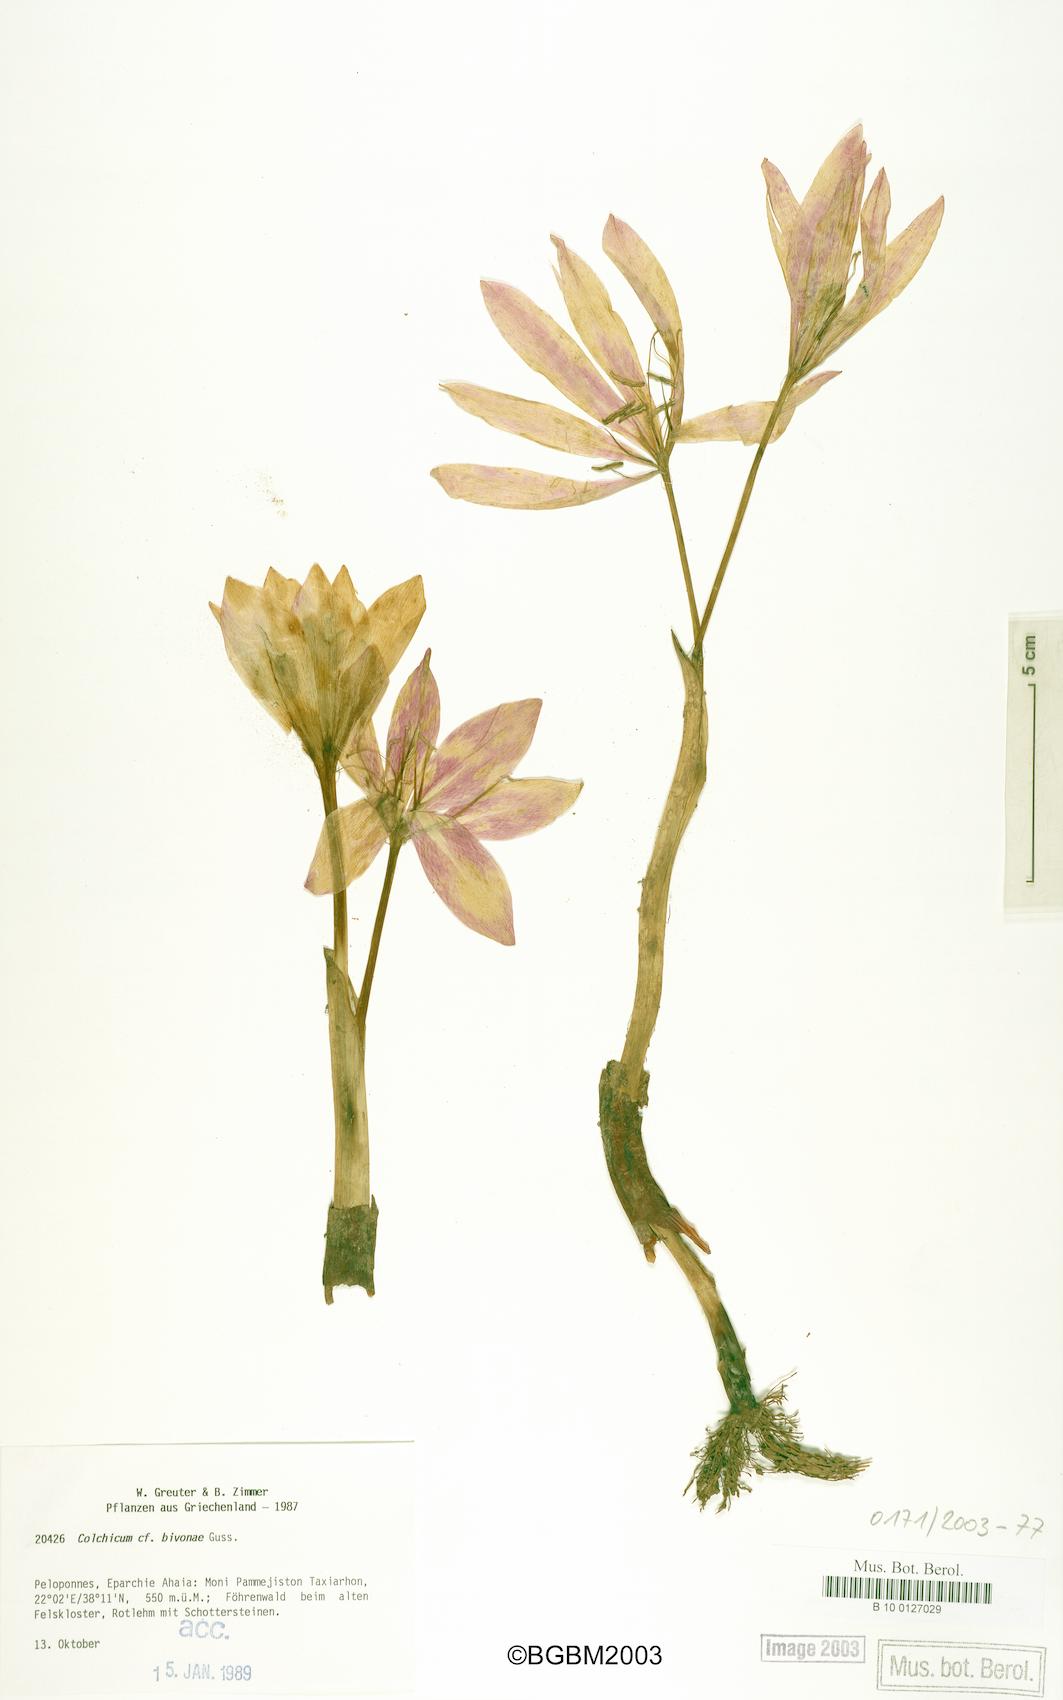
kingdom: Plantae
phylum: Tracheophyta
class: Liliopsida
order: Liliales
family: Colchicaceae
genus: Colchicum
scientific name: Colchicum bivonae
